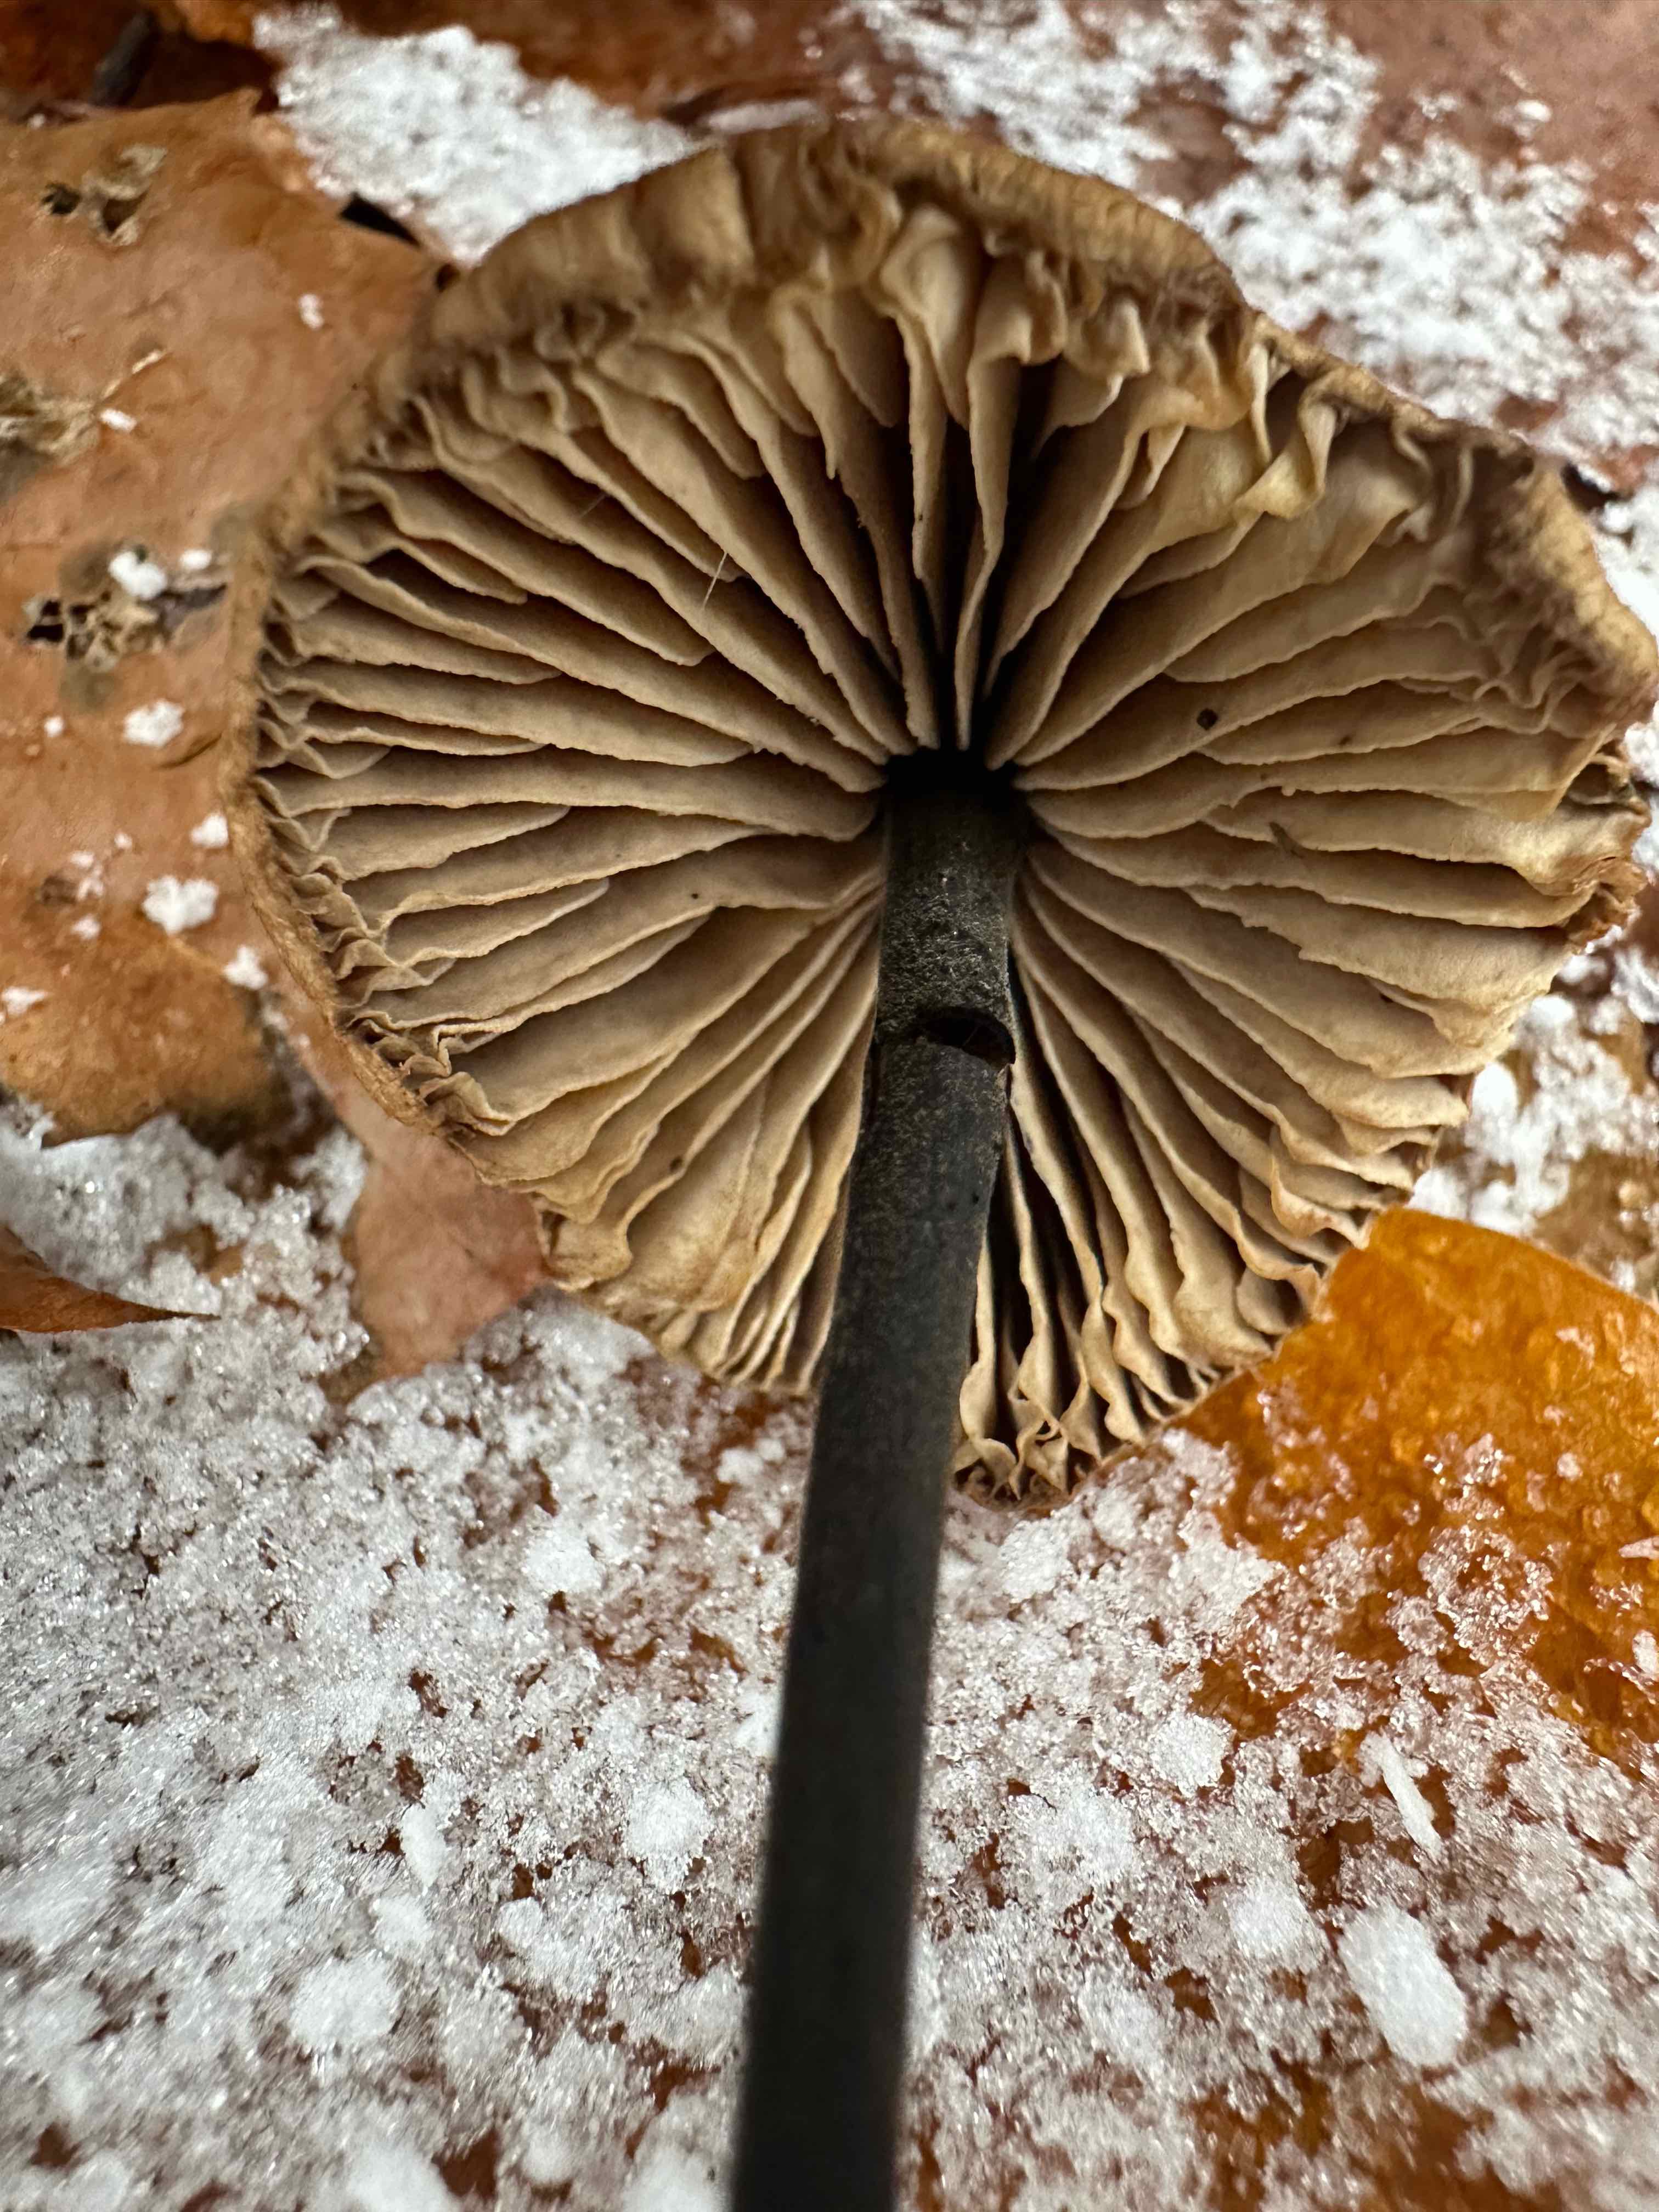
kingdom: Fungi
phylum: Basidiomycota
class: Agaricomycetes
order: Agaricales
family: Omphalotaceae
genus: Mycetinis
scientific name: Mycetinis alliaceus
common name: stor løghat
